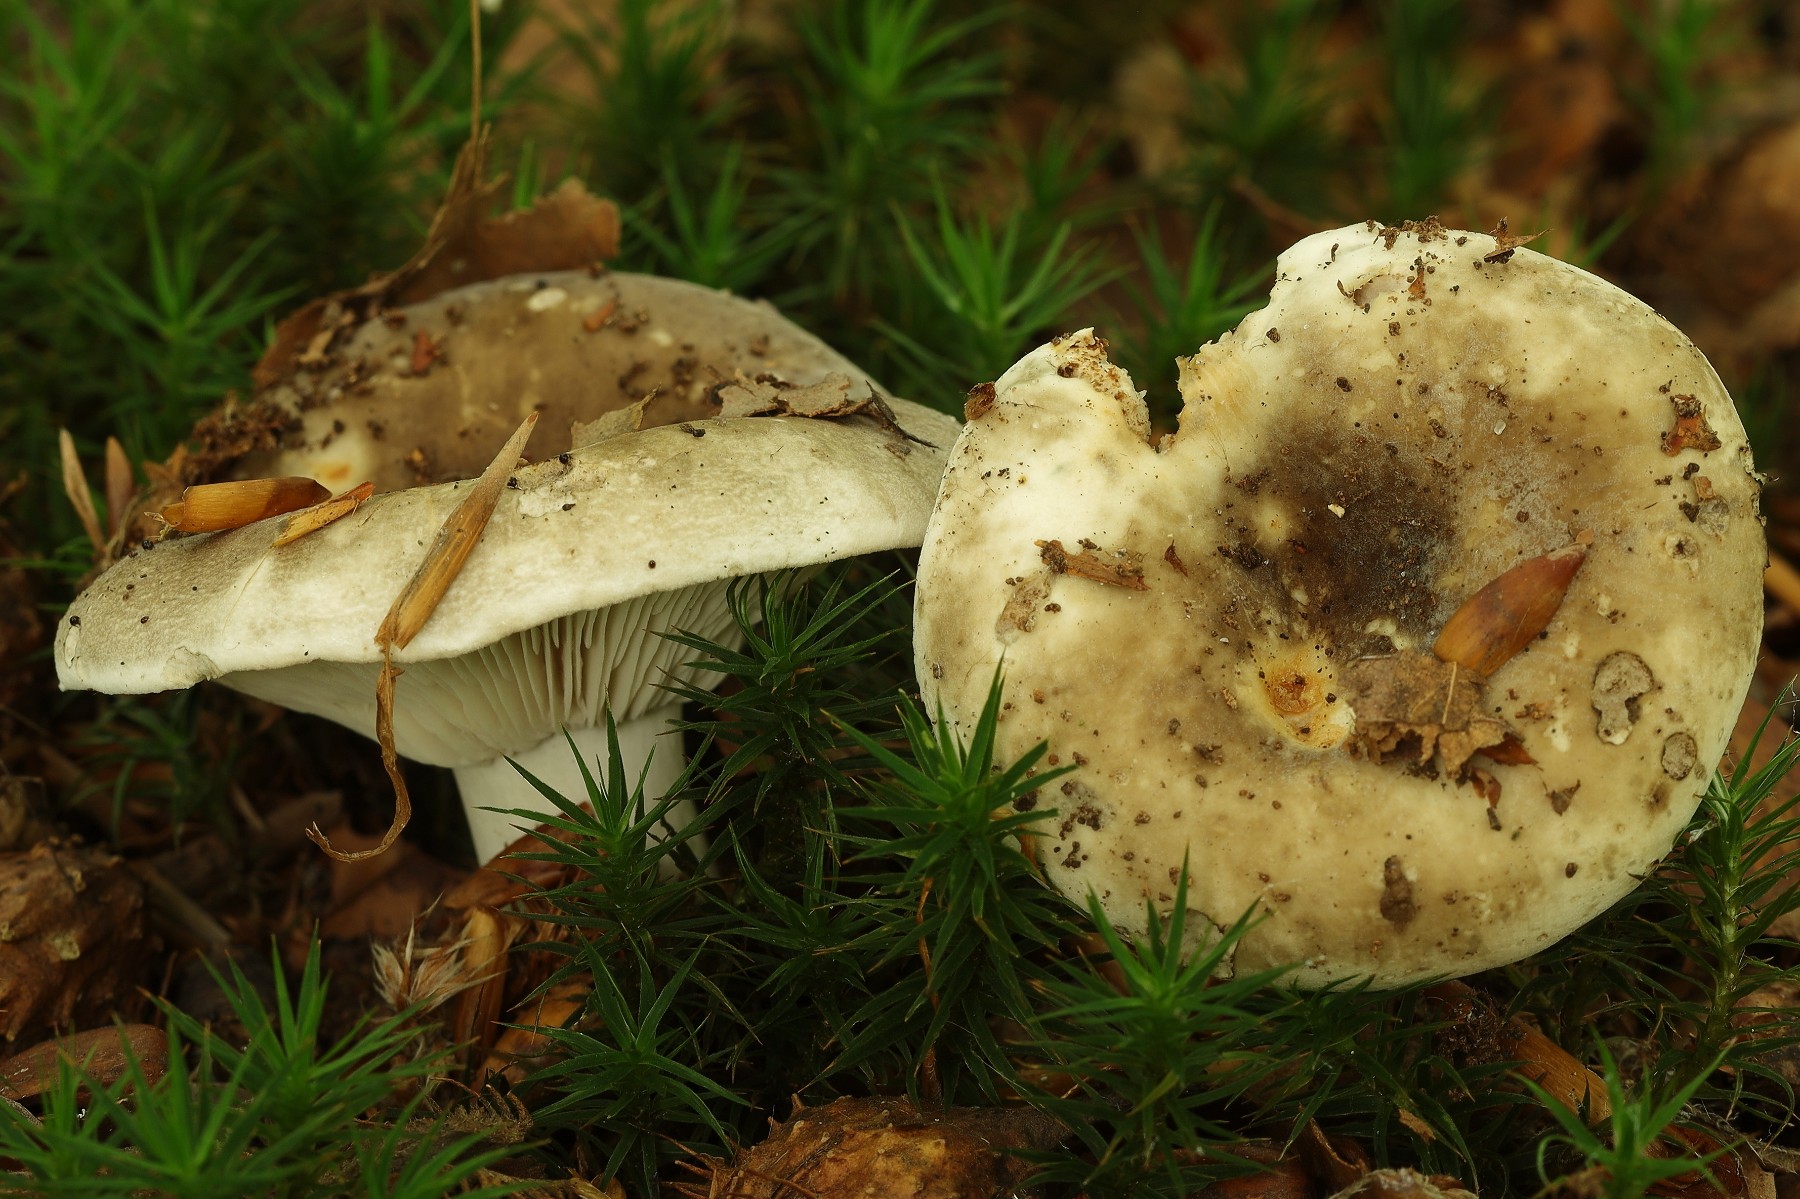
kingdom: Fungi
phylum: Basidiomycota
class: Agaricomycetes
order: Russulales
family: Russulaceae
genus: Russula
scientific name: Russula adusta
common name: sværtende skørhat
